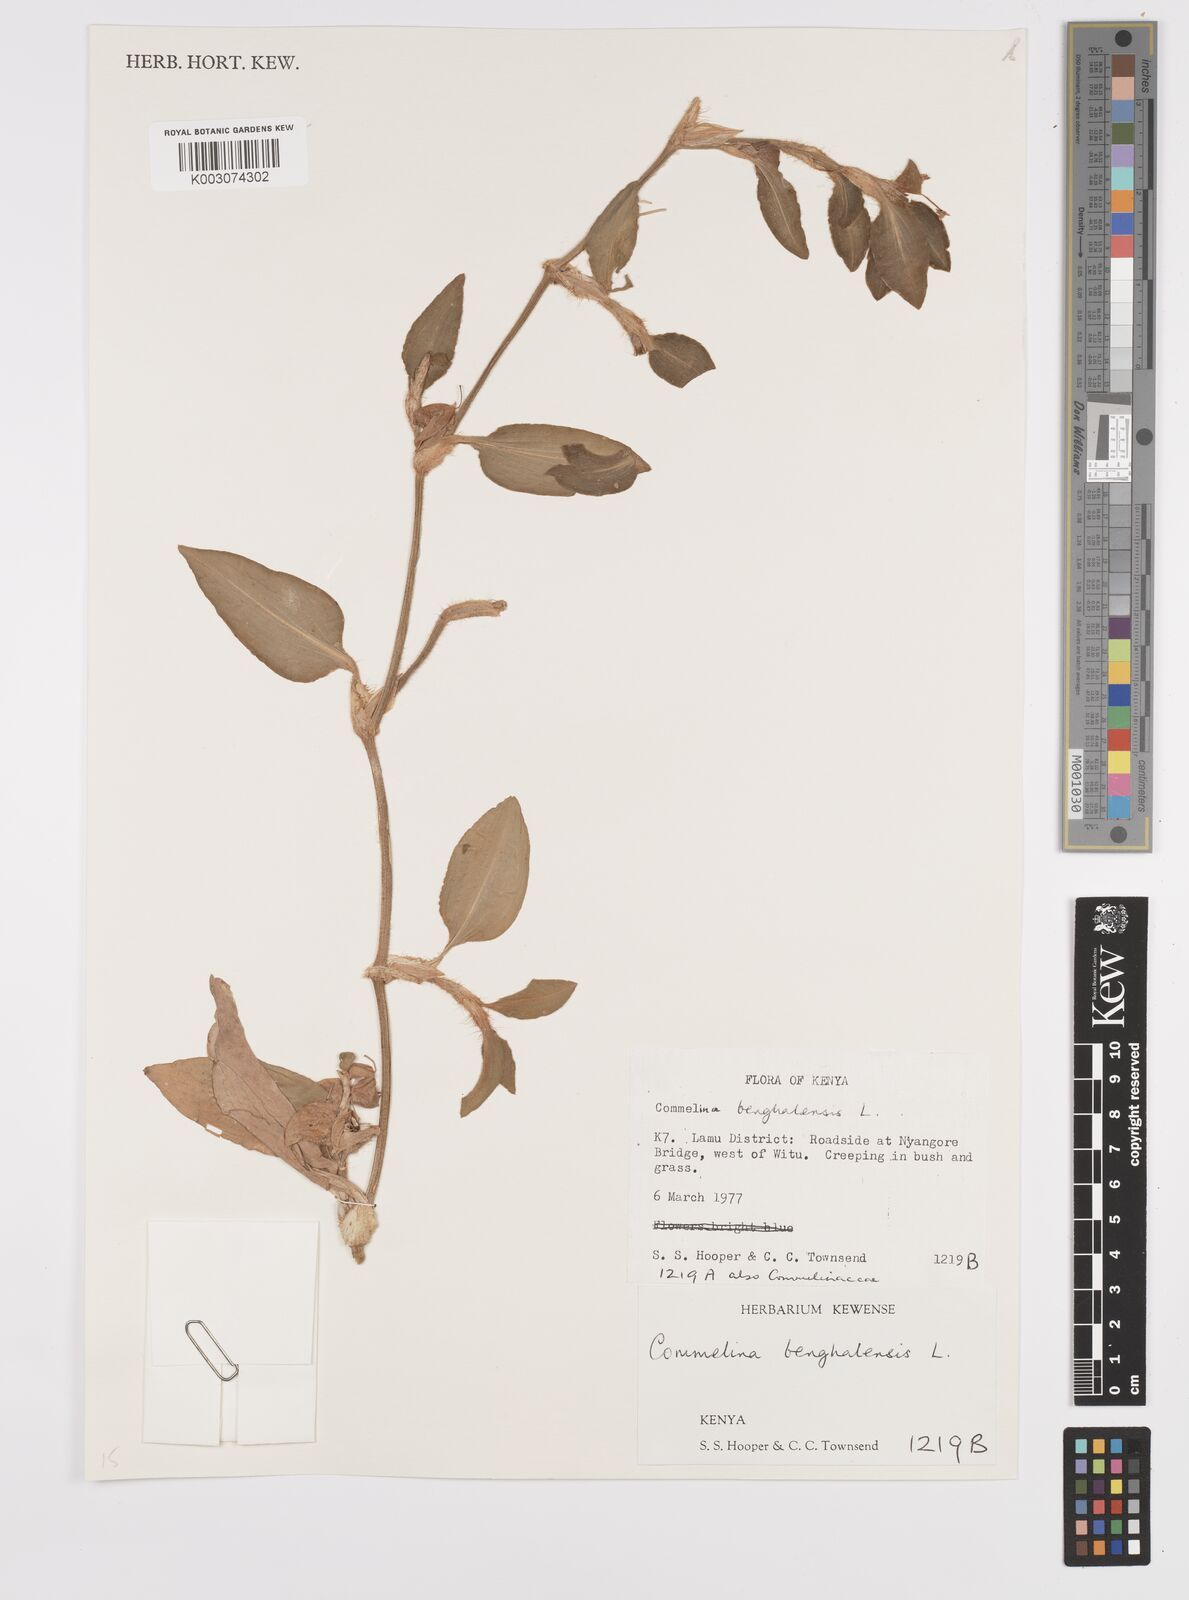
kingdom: Plantae
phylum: Tracheophyta
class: Liliopsida
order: Commelinales
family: Commelinaceae
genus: Commelina
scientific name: Commelina benghalensis
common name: Jio
